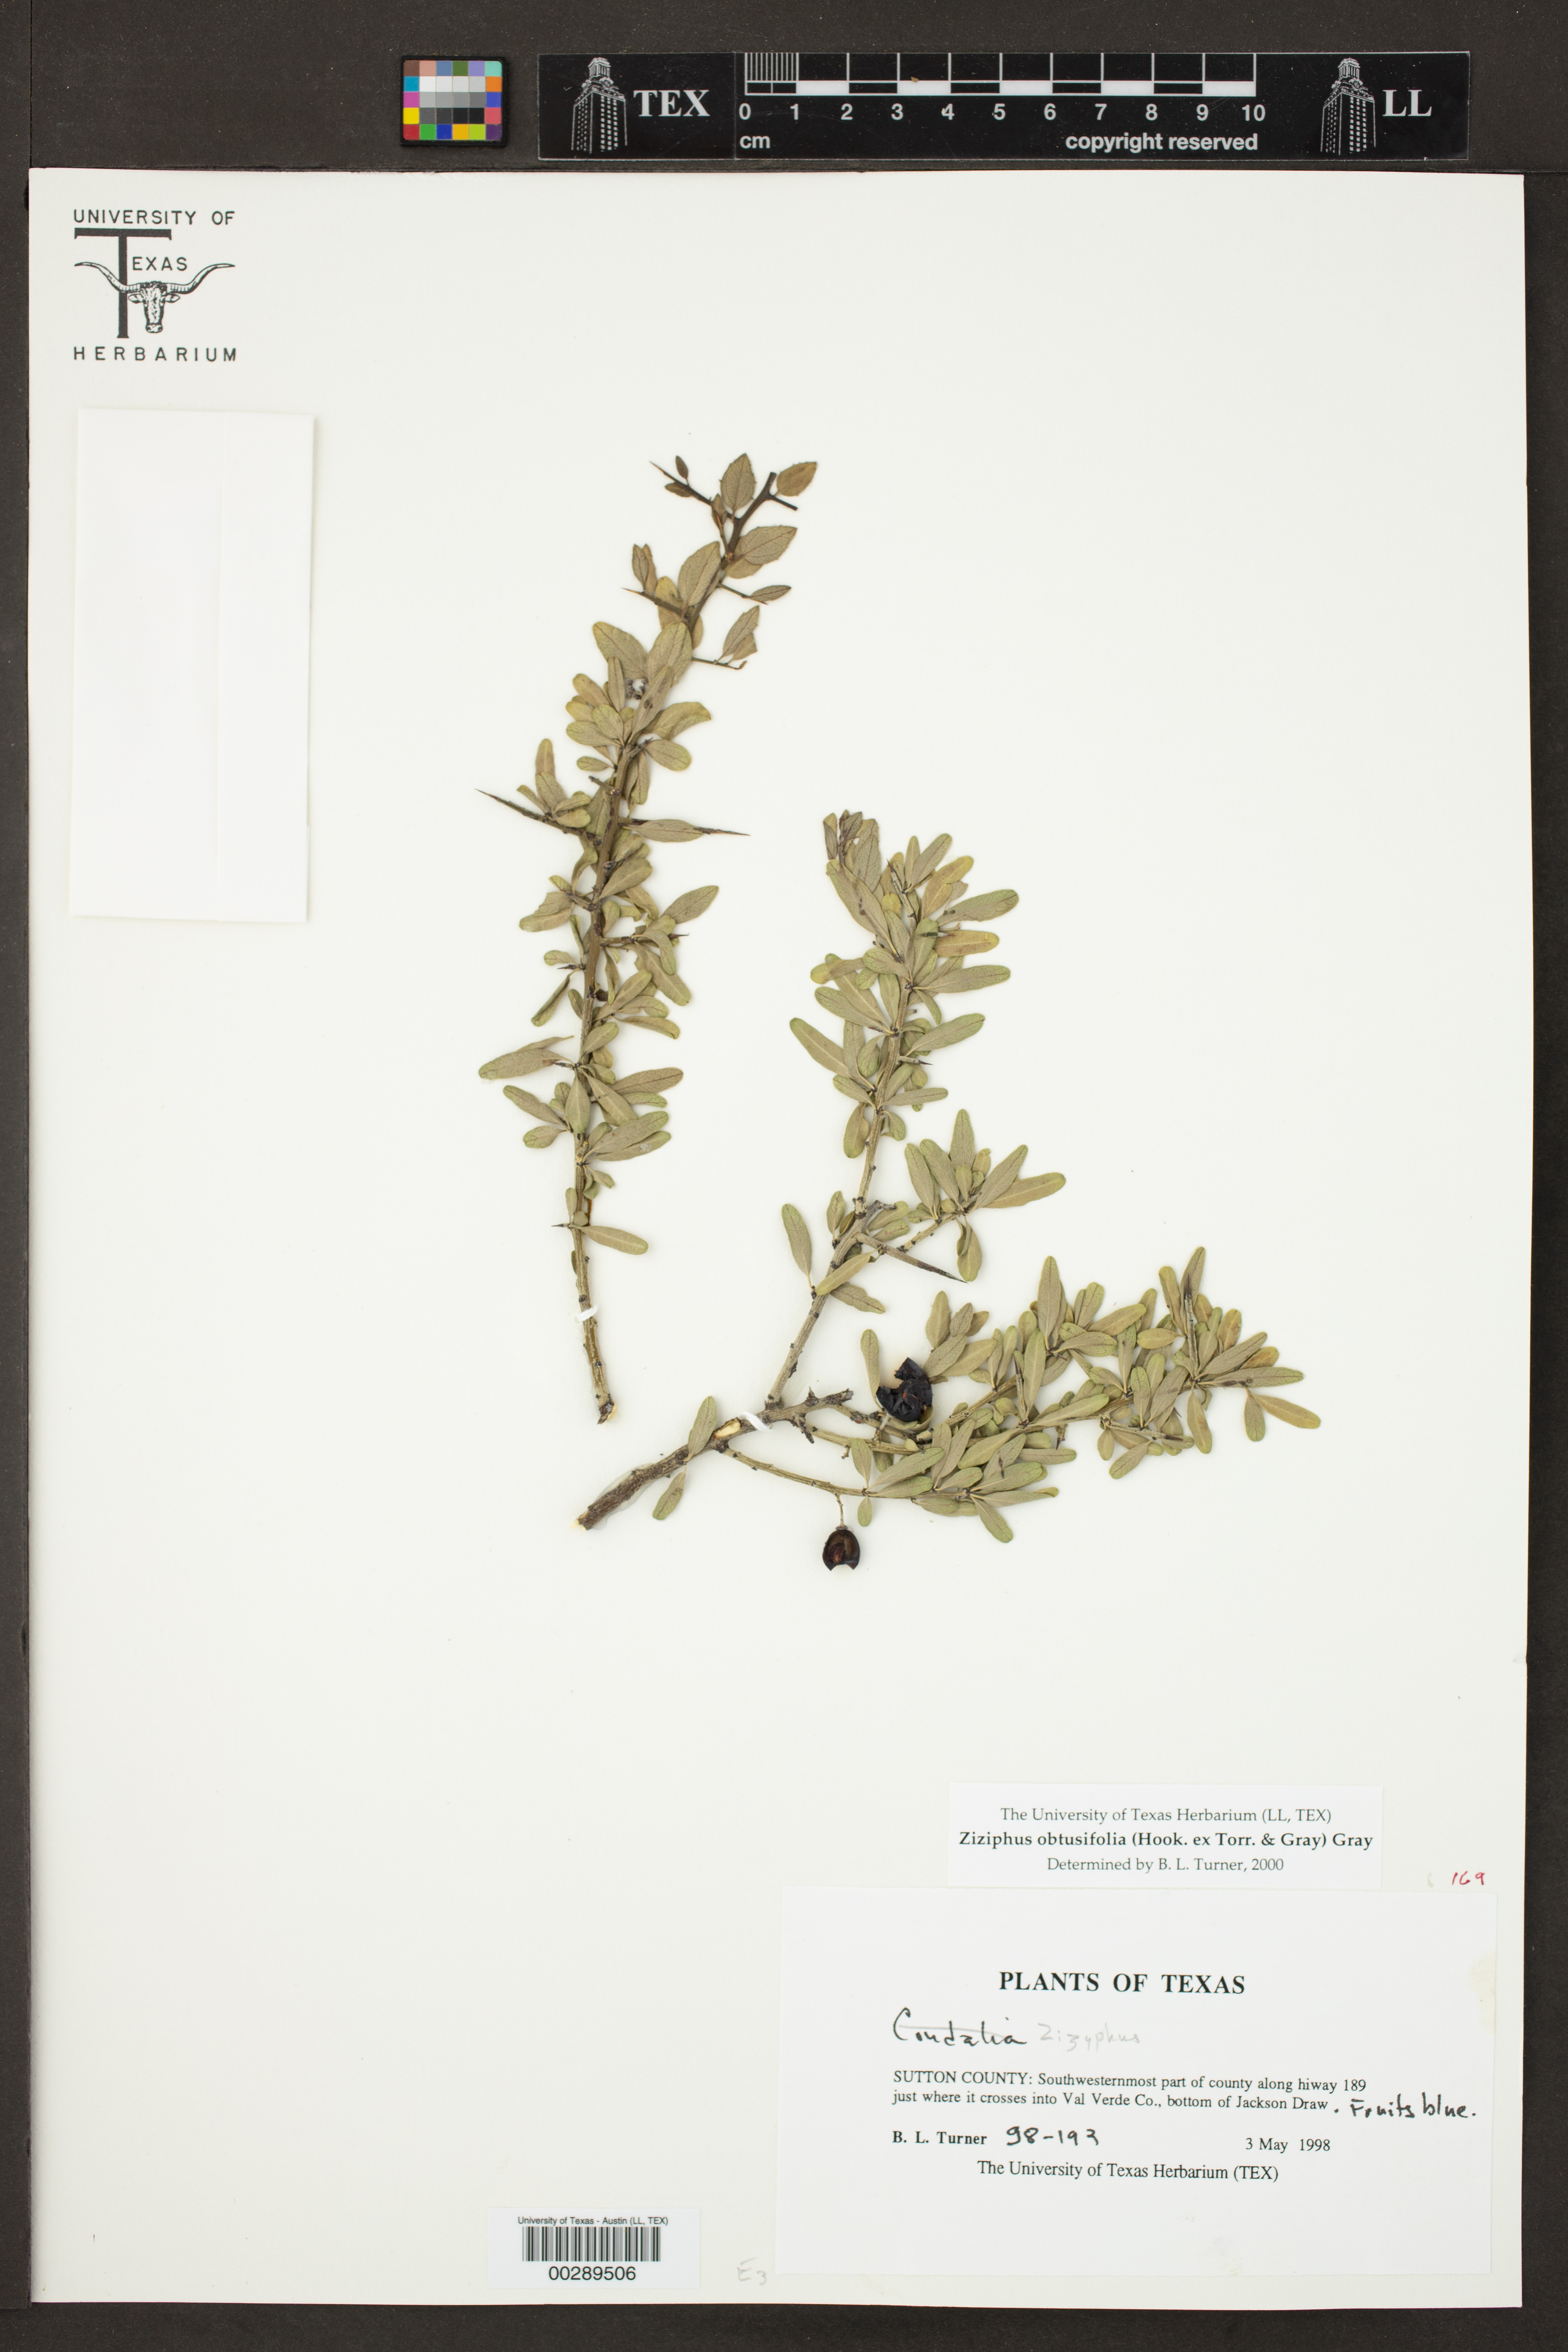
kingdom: Plantae
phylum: Tracheophyta
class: Magnoliopsida
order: Rosales
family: Rhamnaceae
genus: Sarcomphalus
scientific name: Sarcomphalus obtusifolius
